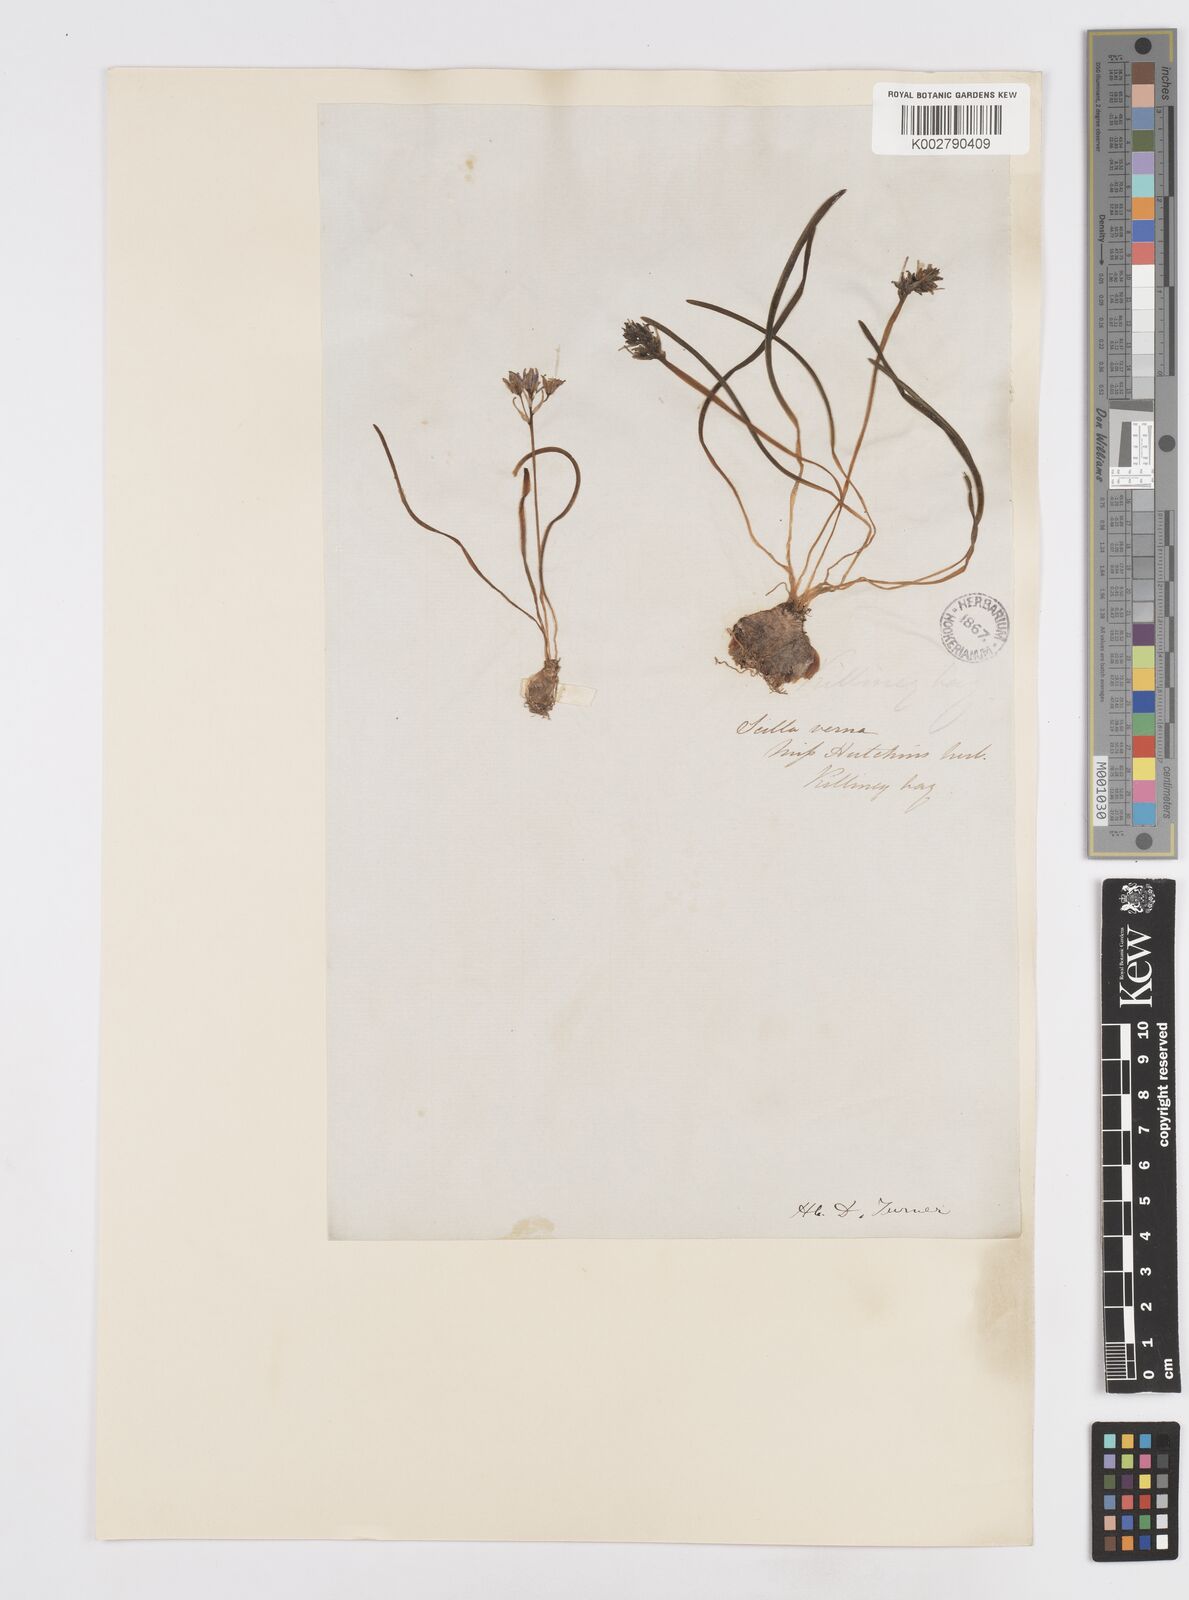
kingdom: Plantae
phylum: Tracheophyta
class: Liliopsida
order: Asparagales
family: Asparagaceae
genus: Scilla
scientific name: Scilla verna
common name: Spring squill
